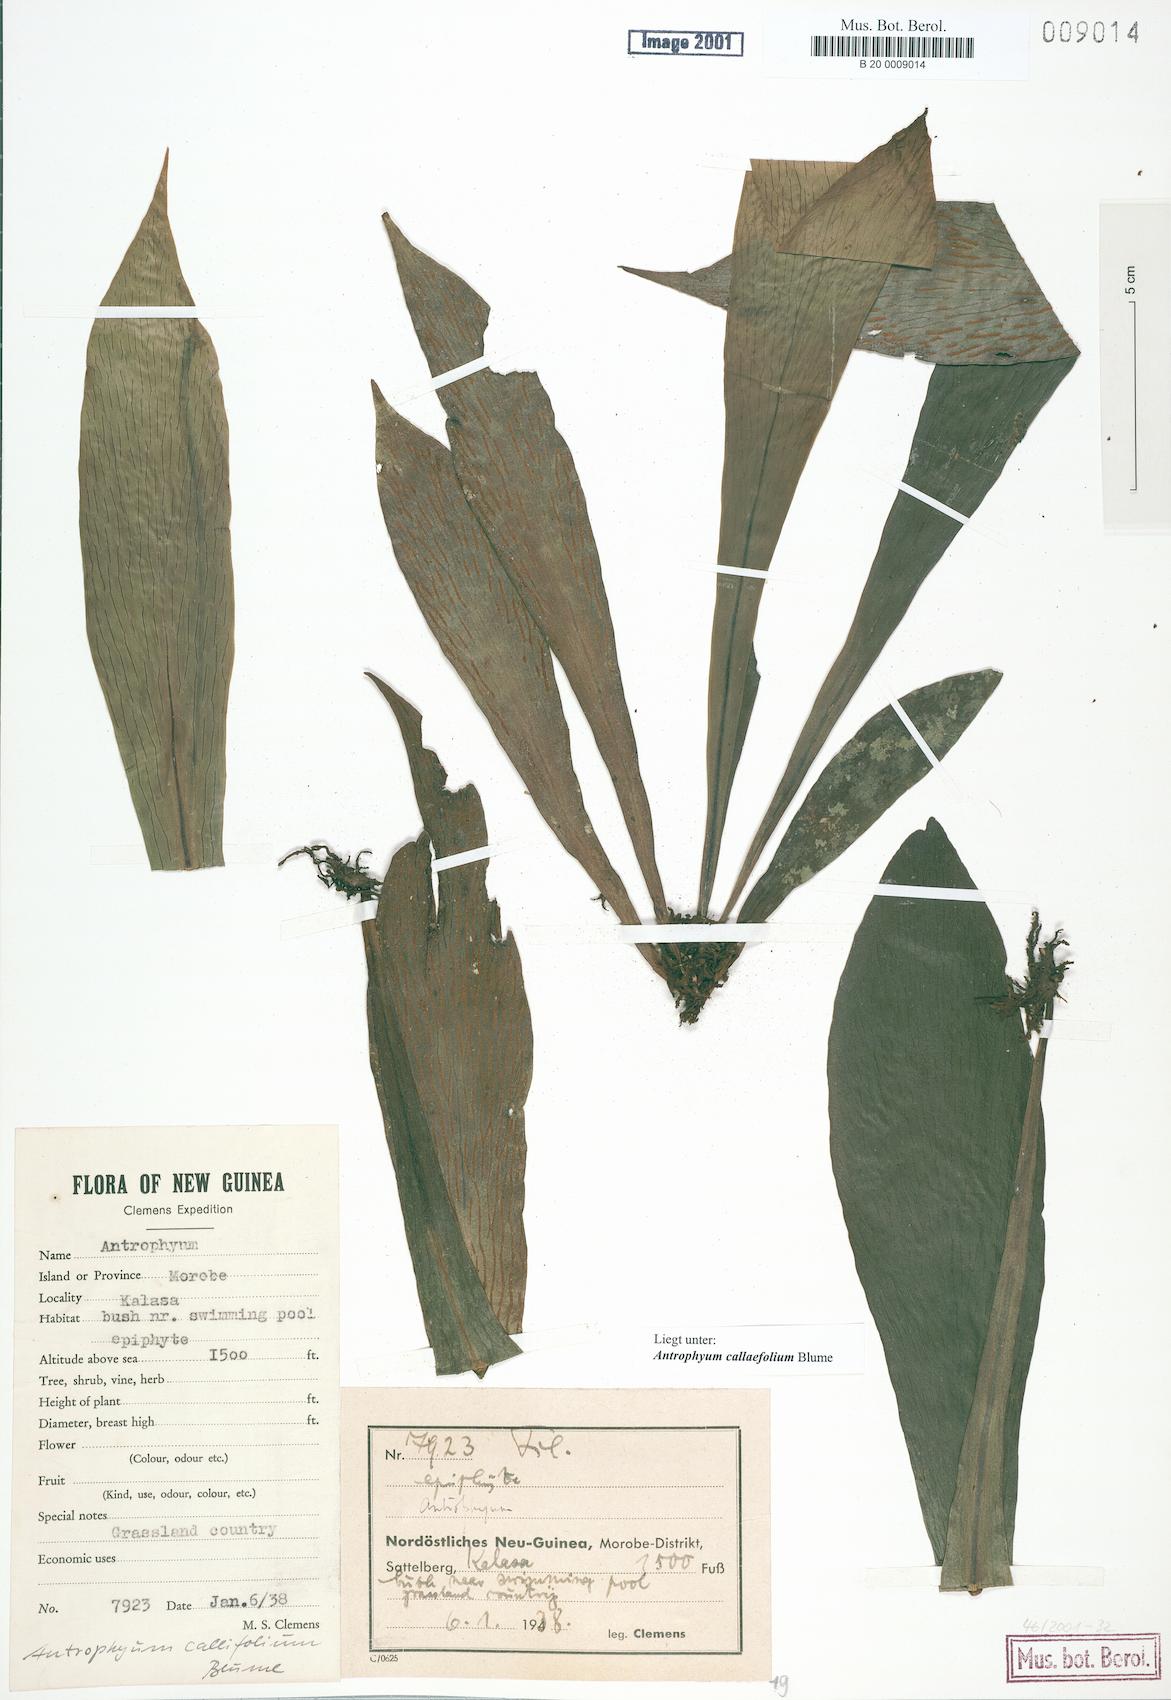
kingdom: Plantae
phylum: Tracheophyta
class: Polypodiopsida
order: Polypodiales
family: Pteridaceae
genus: Antrophyum
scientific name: Antrophyum callifolium
